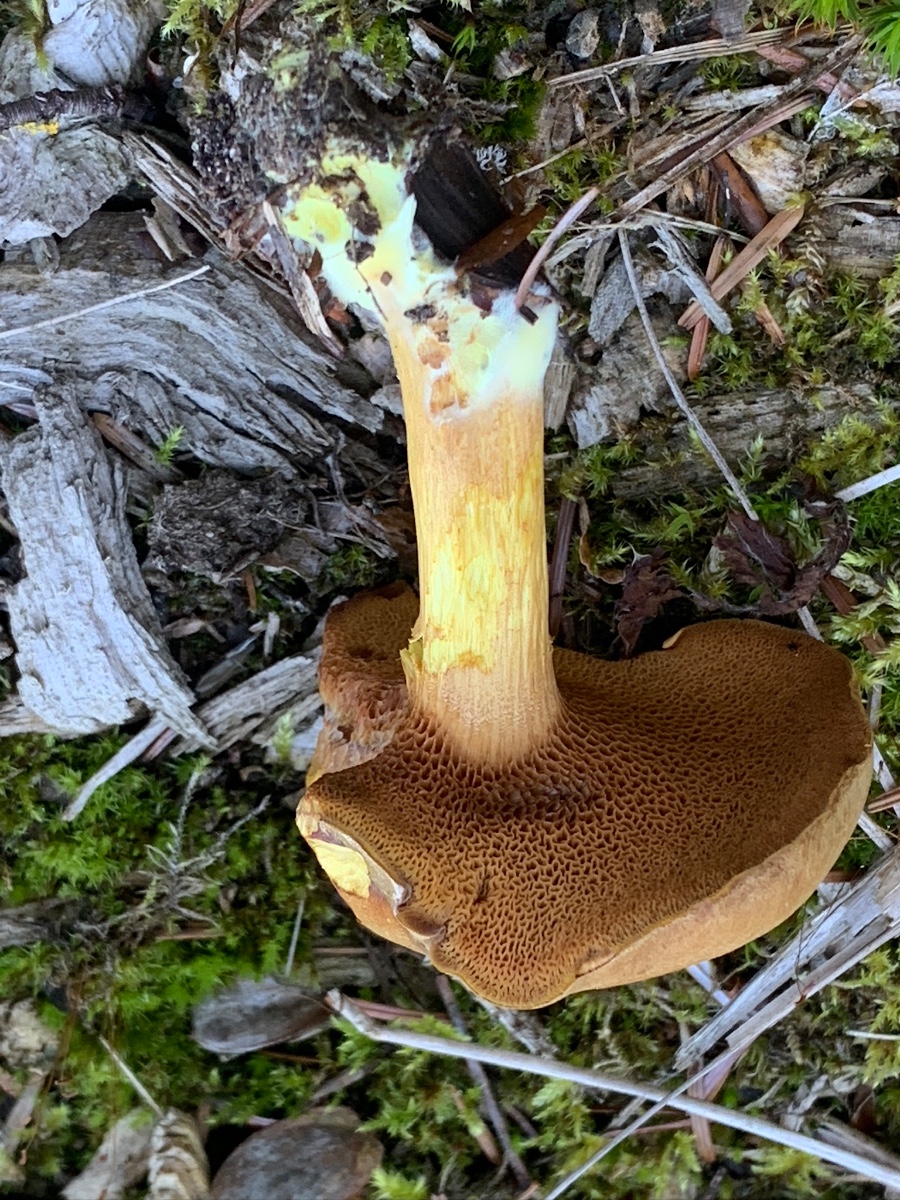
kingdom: Fungi
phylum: Basidiomycota
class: Agaricomycetes
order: Boletales
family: Boletaceae
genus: Chalciporus
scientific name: Chalciporus piperatus
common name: peberrørhat
